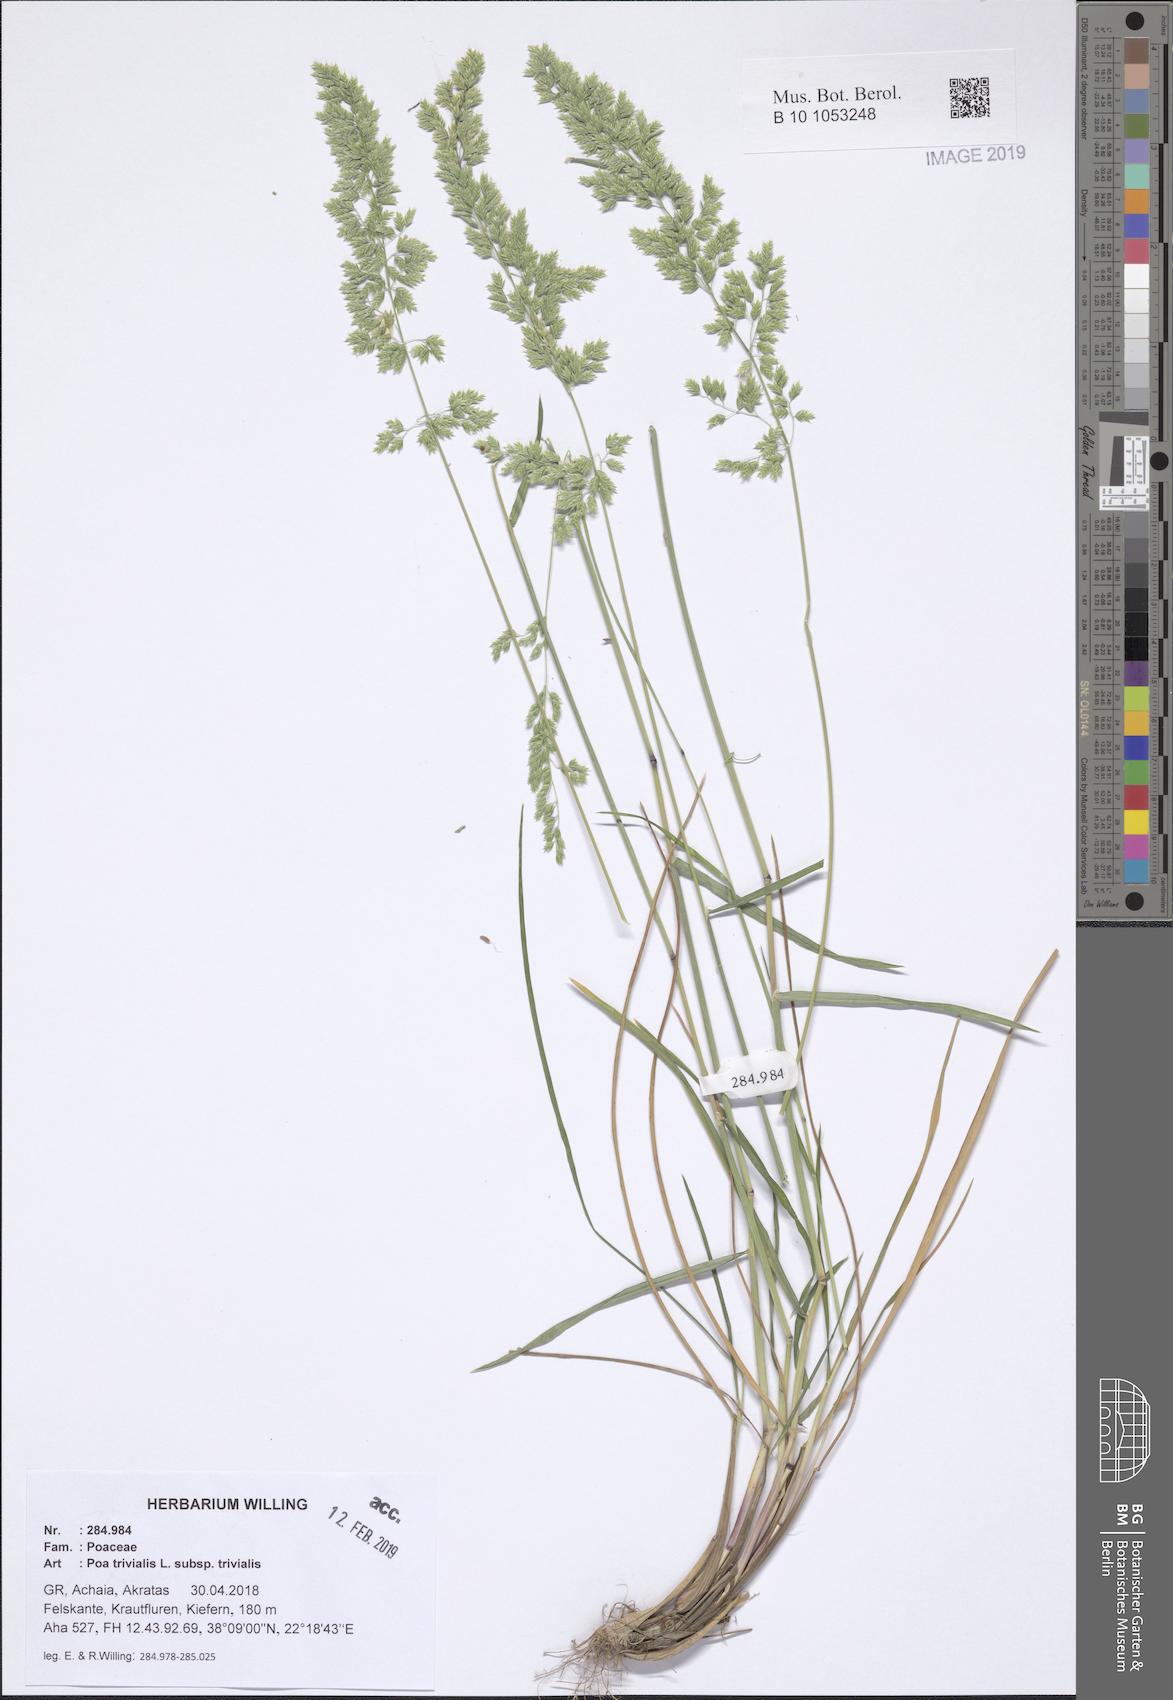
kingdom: Plantae
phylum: Tracheophyta
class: Liliopsida
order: Poales
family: Poaceae
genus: Poa
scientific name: Poa trivialis
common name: Rough bluegrass
